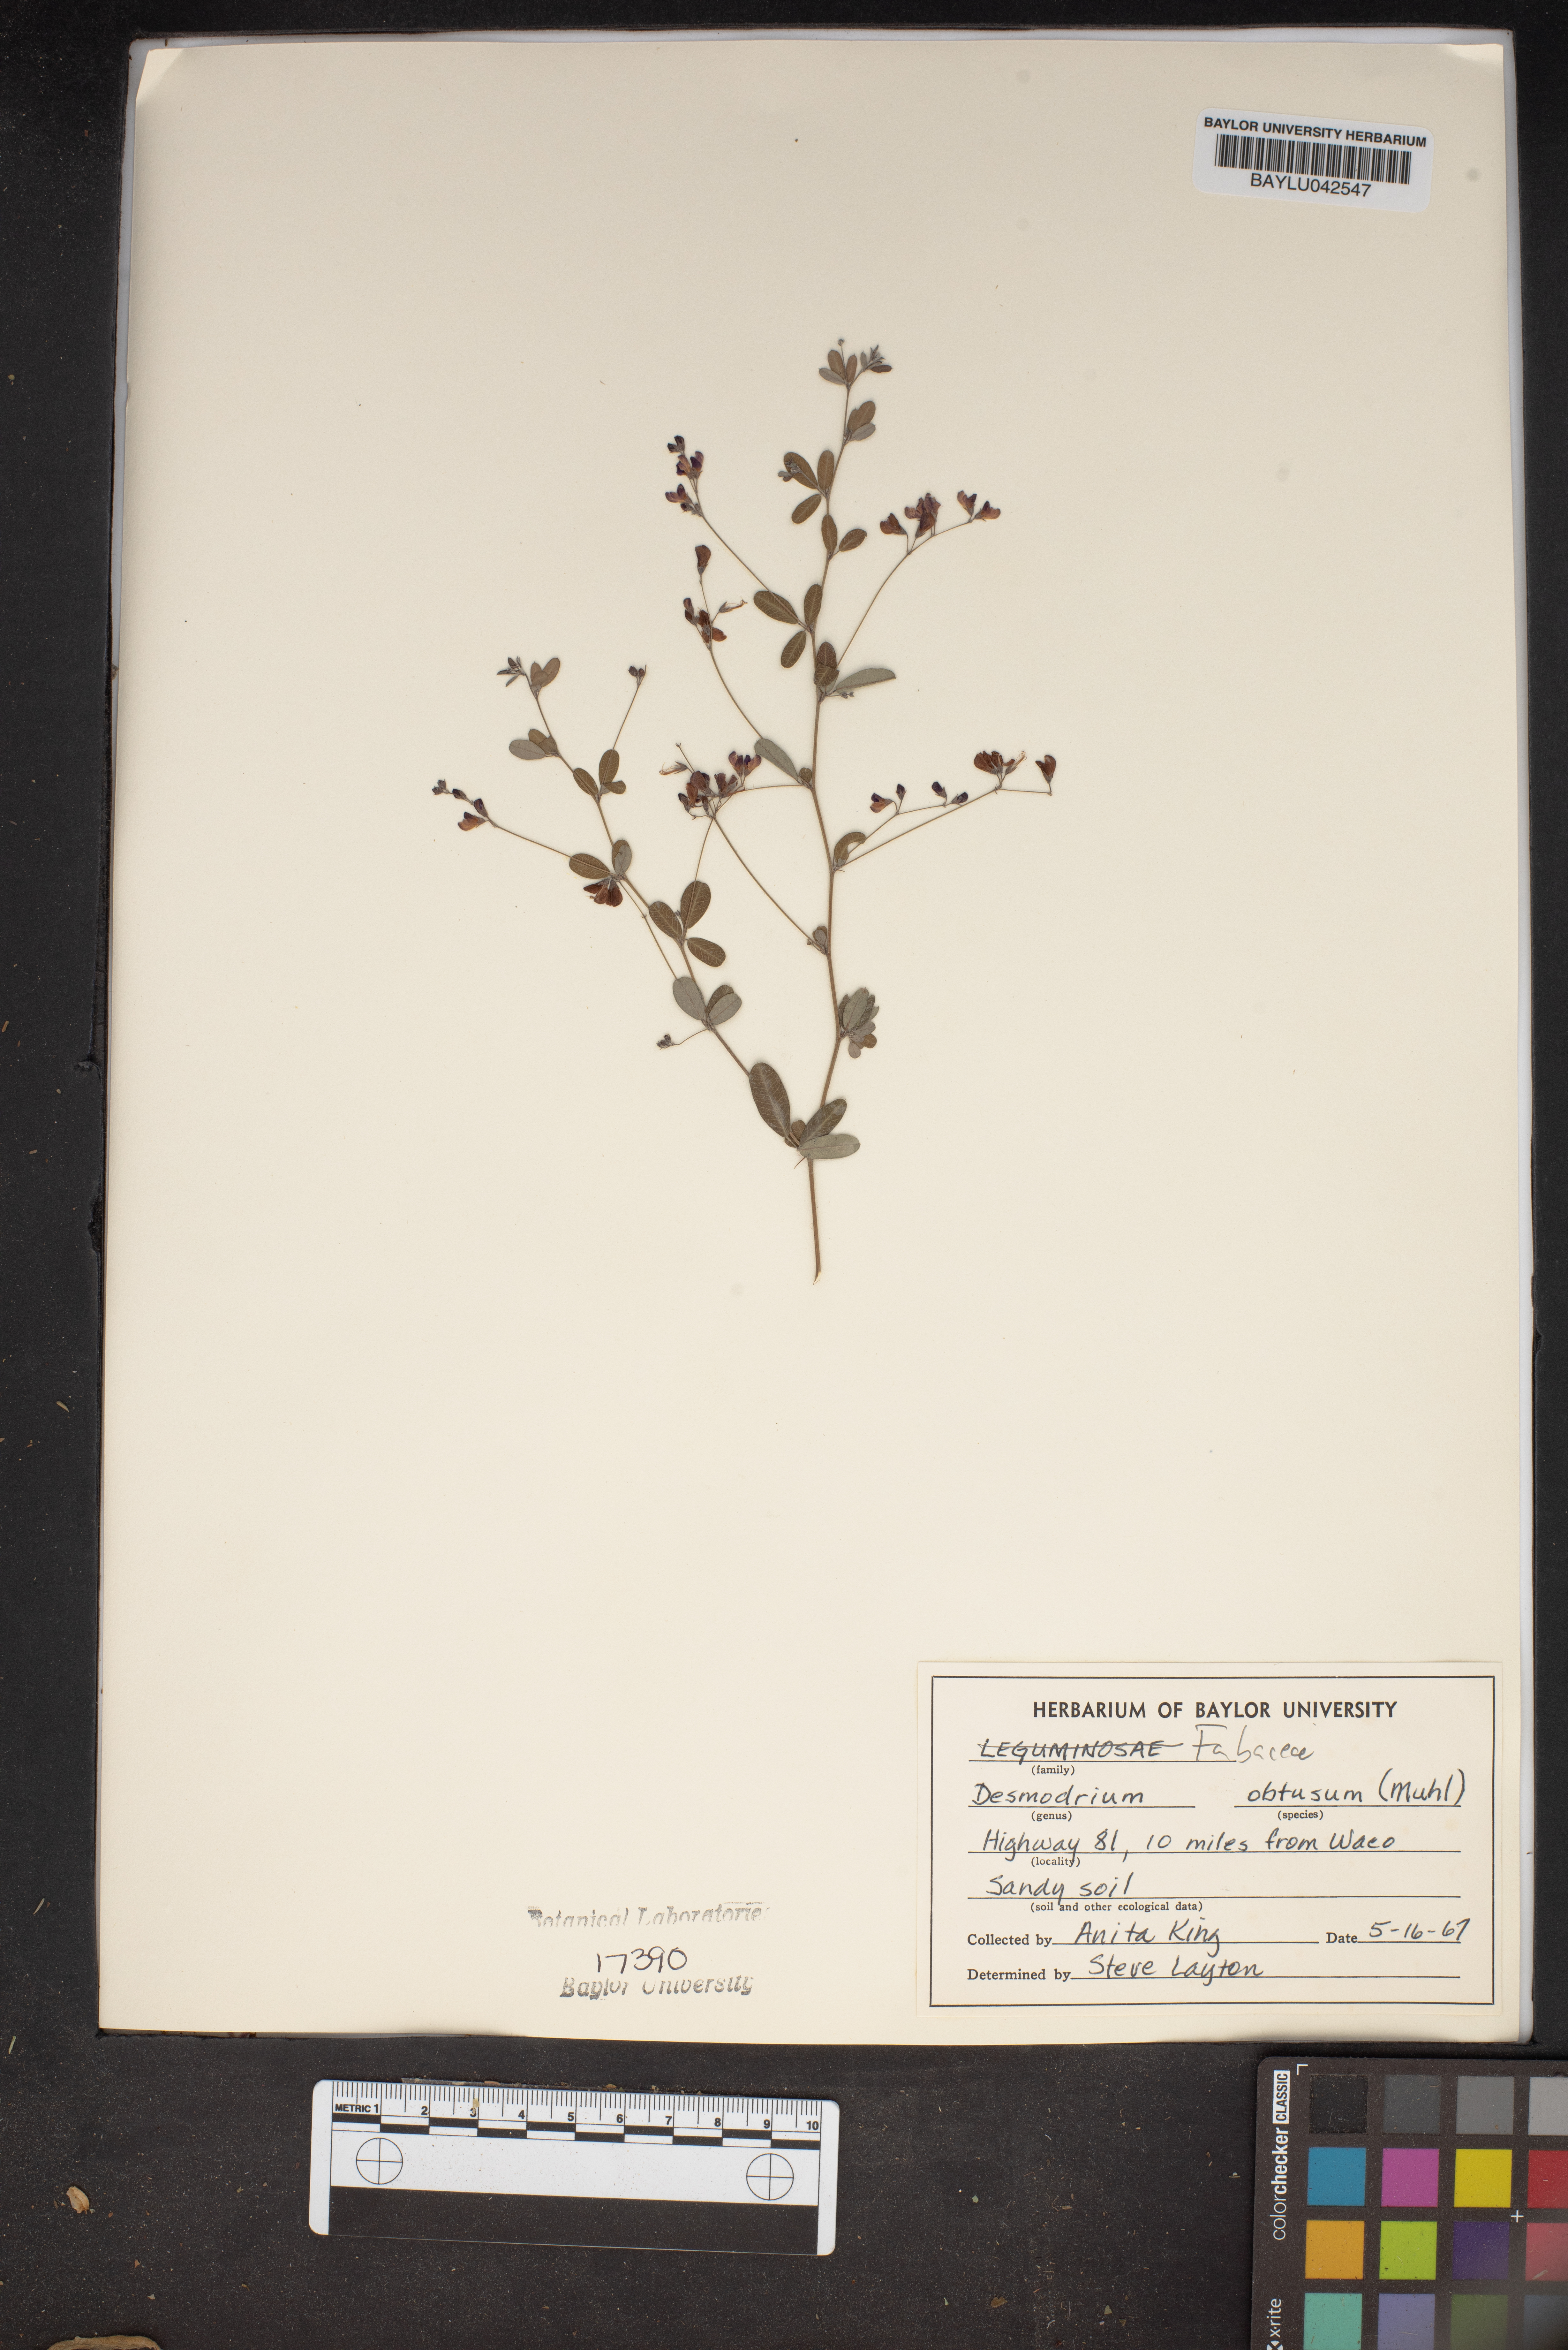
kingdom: Plantae
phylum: Tracheophyta
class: Magnoliopsida
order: Fabales
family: Fabaceae
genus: Desmodium
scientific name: Desmodium obtusum
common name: Stiff tick trefoil
